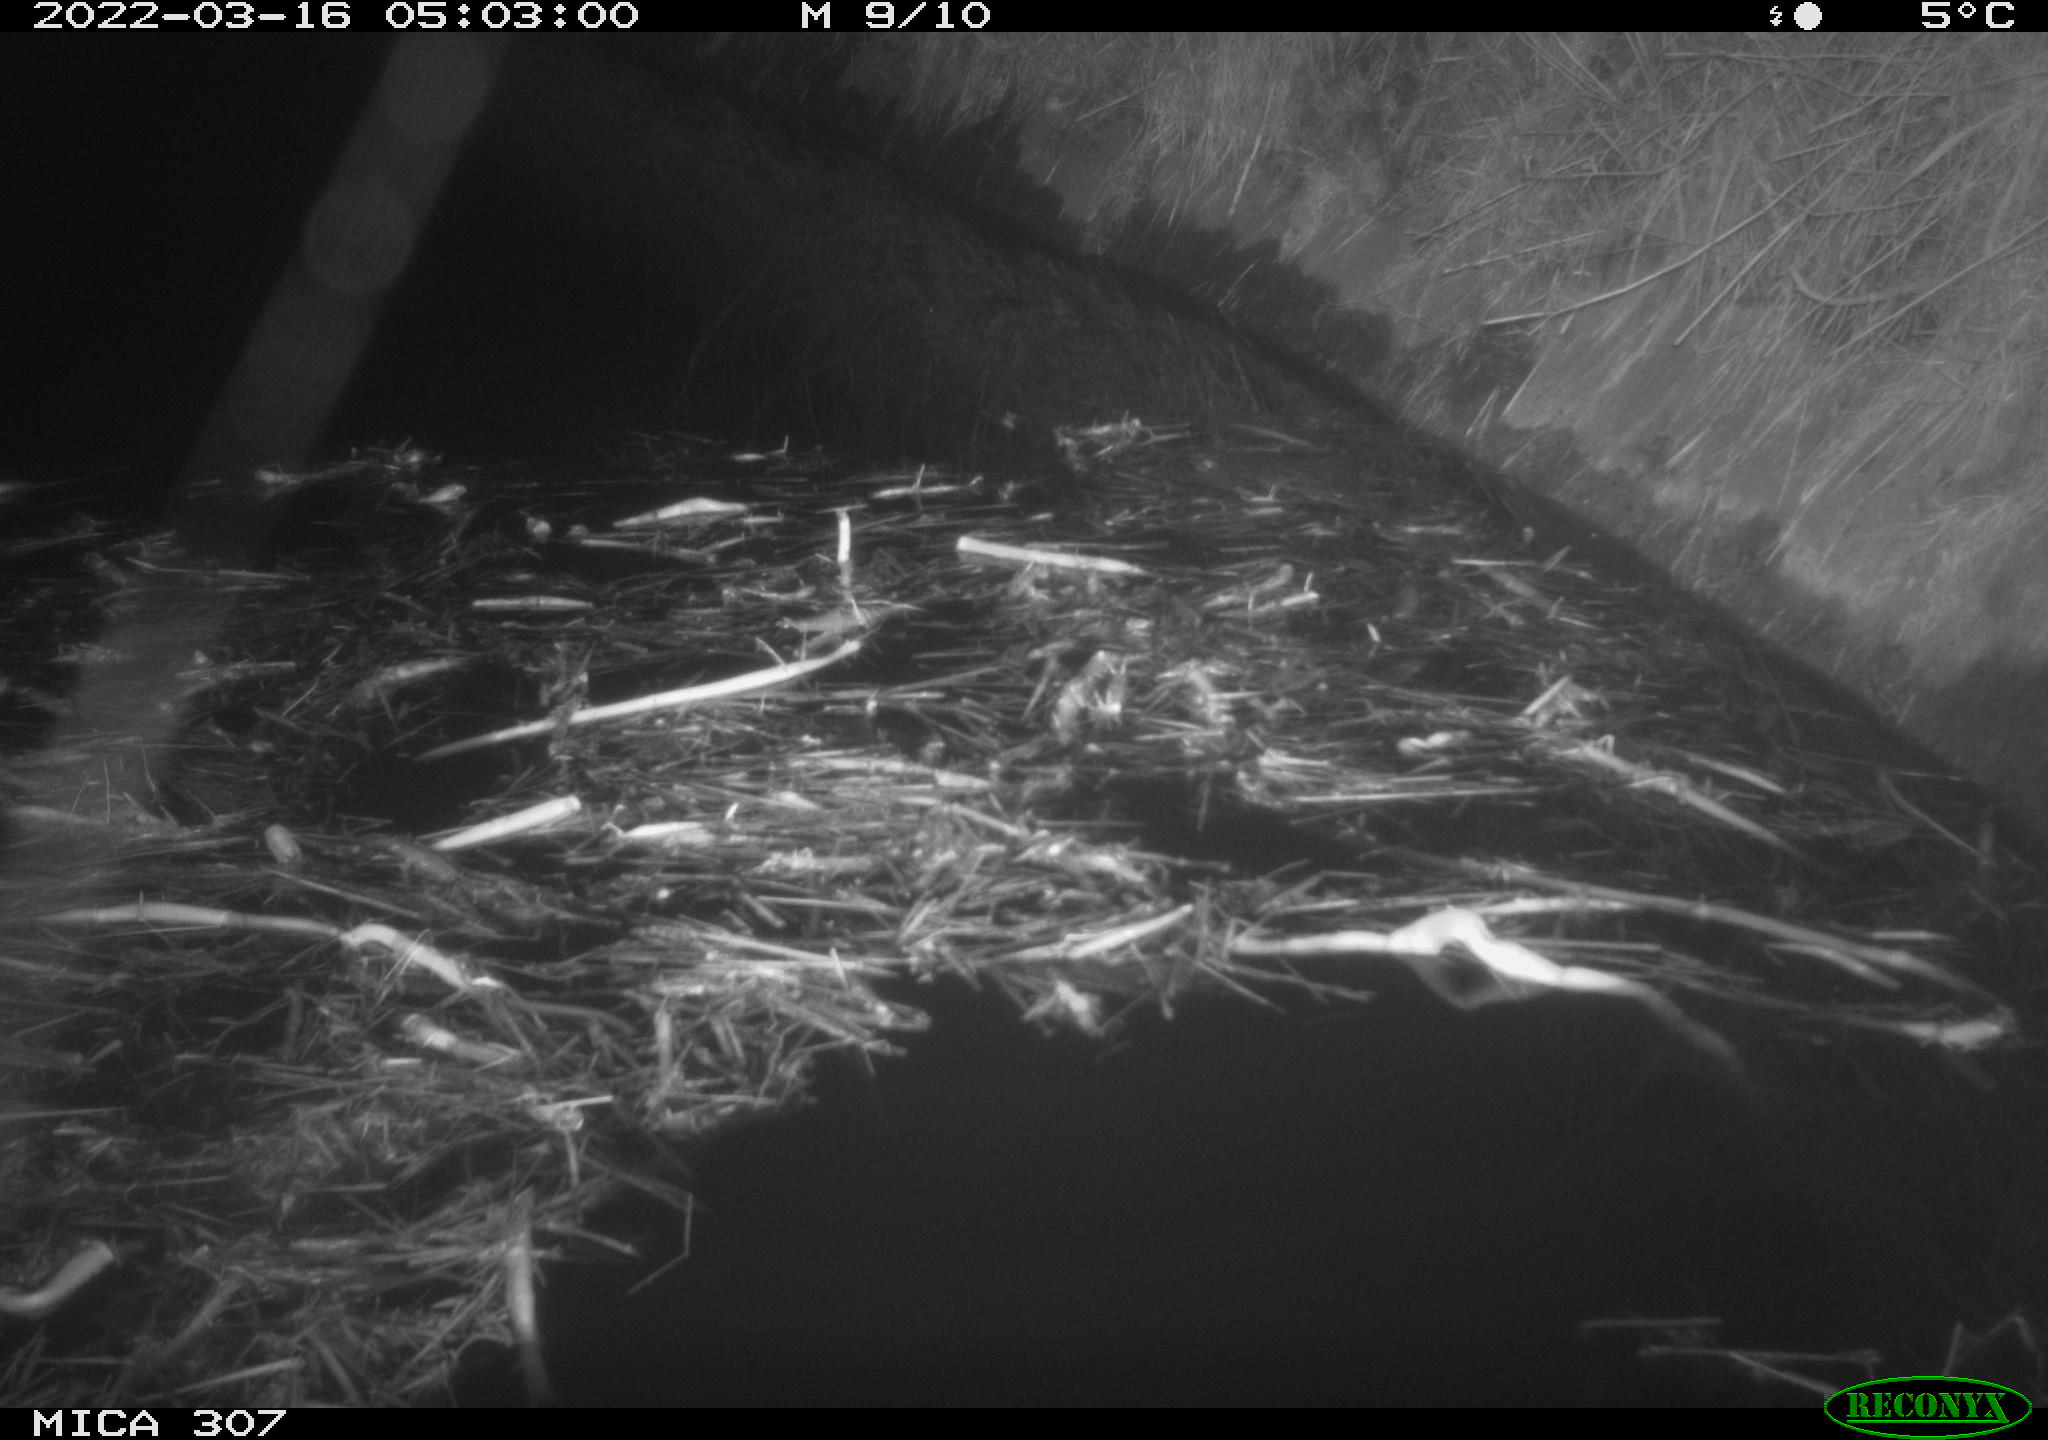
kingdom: Animalia
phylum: Chordata
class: Mammalia
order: Rodentia
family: Muridae
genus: Rattus
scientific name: Rattus norvegicus
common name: Brown rat
